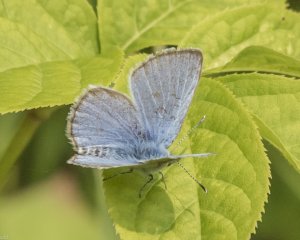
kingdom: Animalia
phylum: Arthropoda
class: Insecta
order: Lepidoptera
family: Lycaenidae
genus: Glaucopsyche
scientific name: Glaucopsyche lygdamus
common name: Silvery Blue
